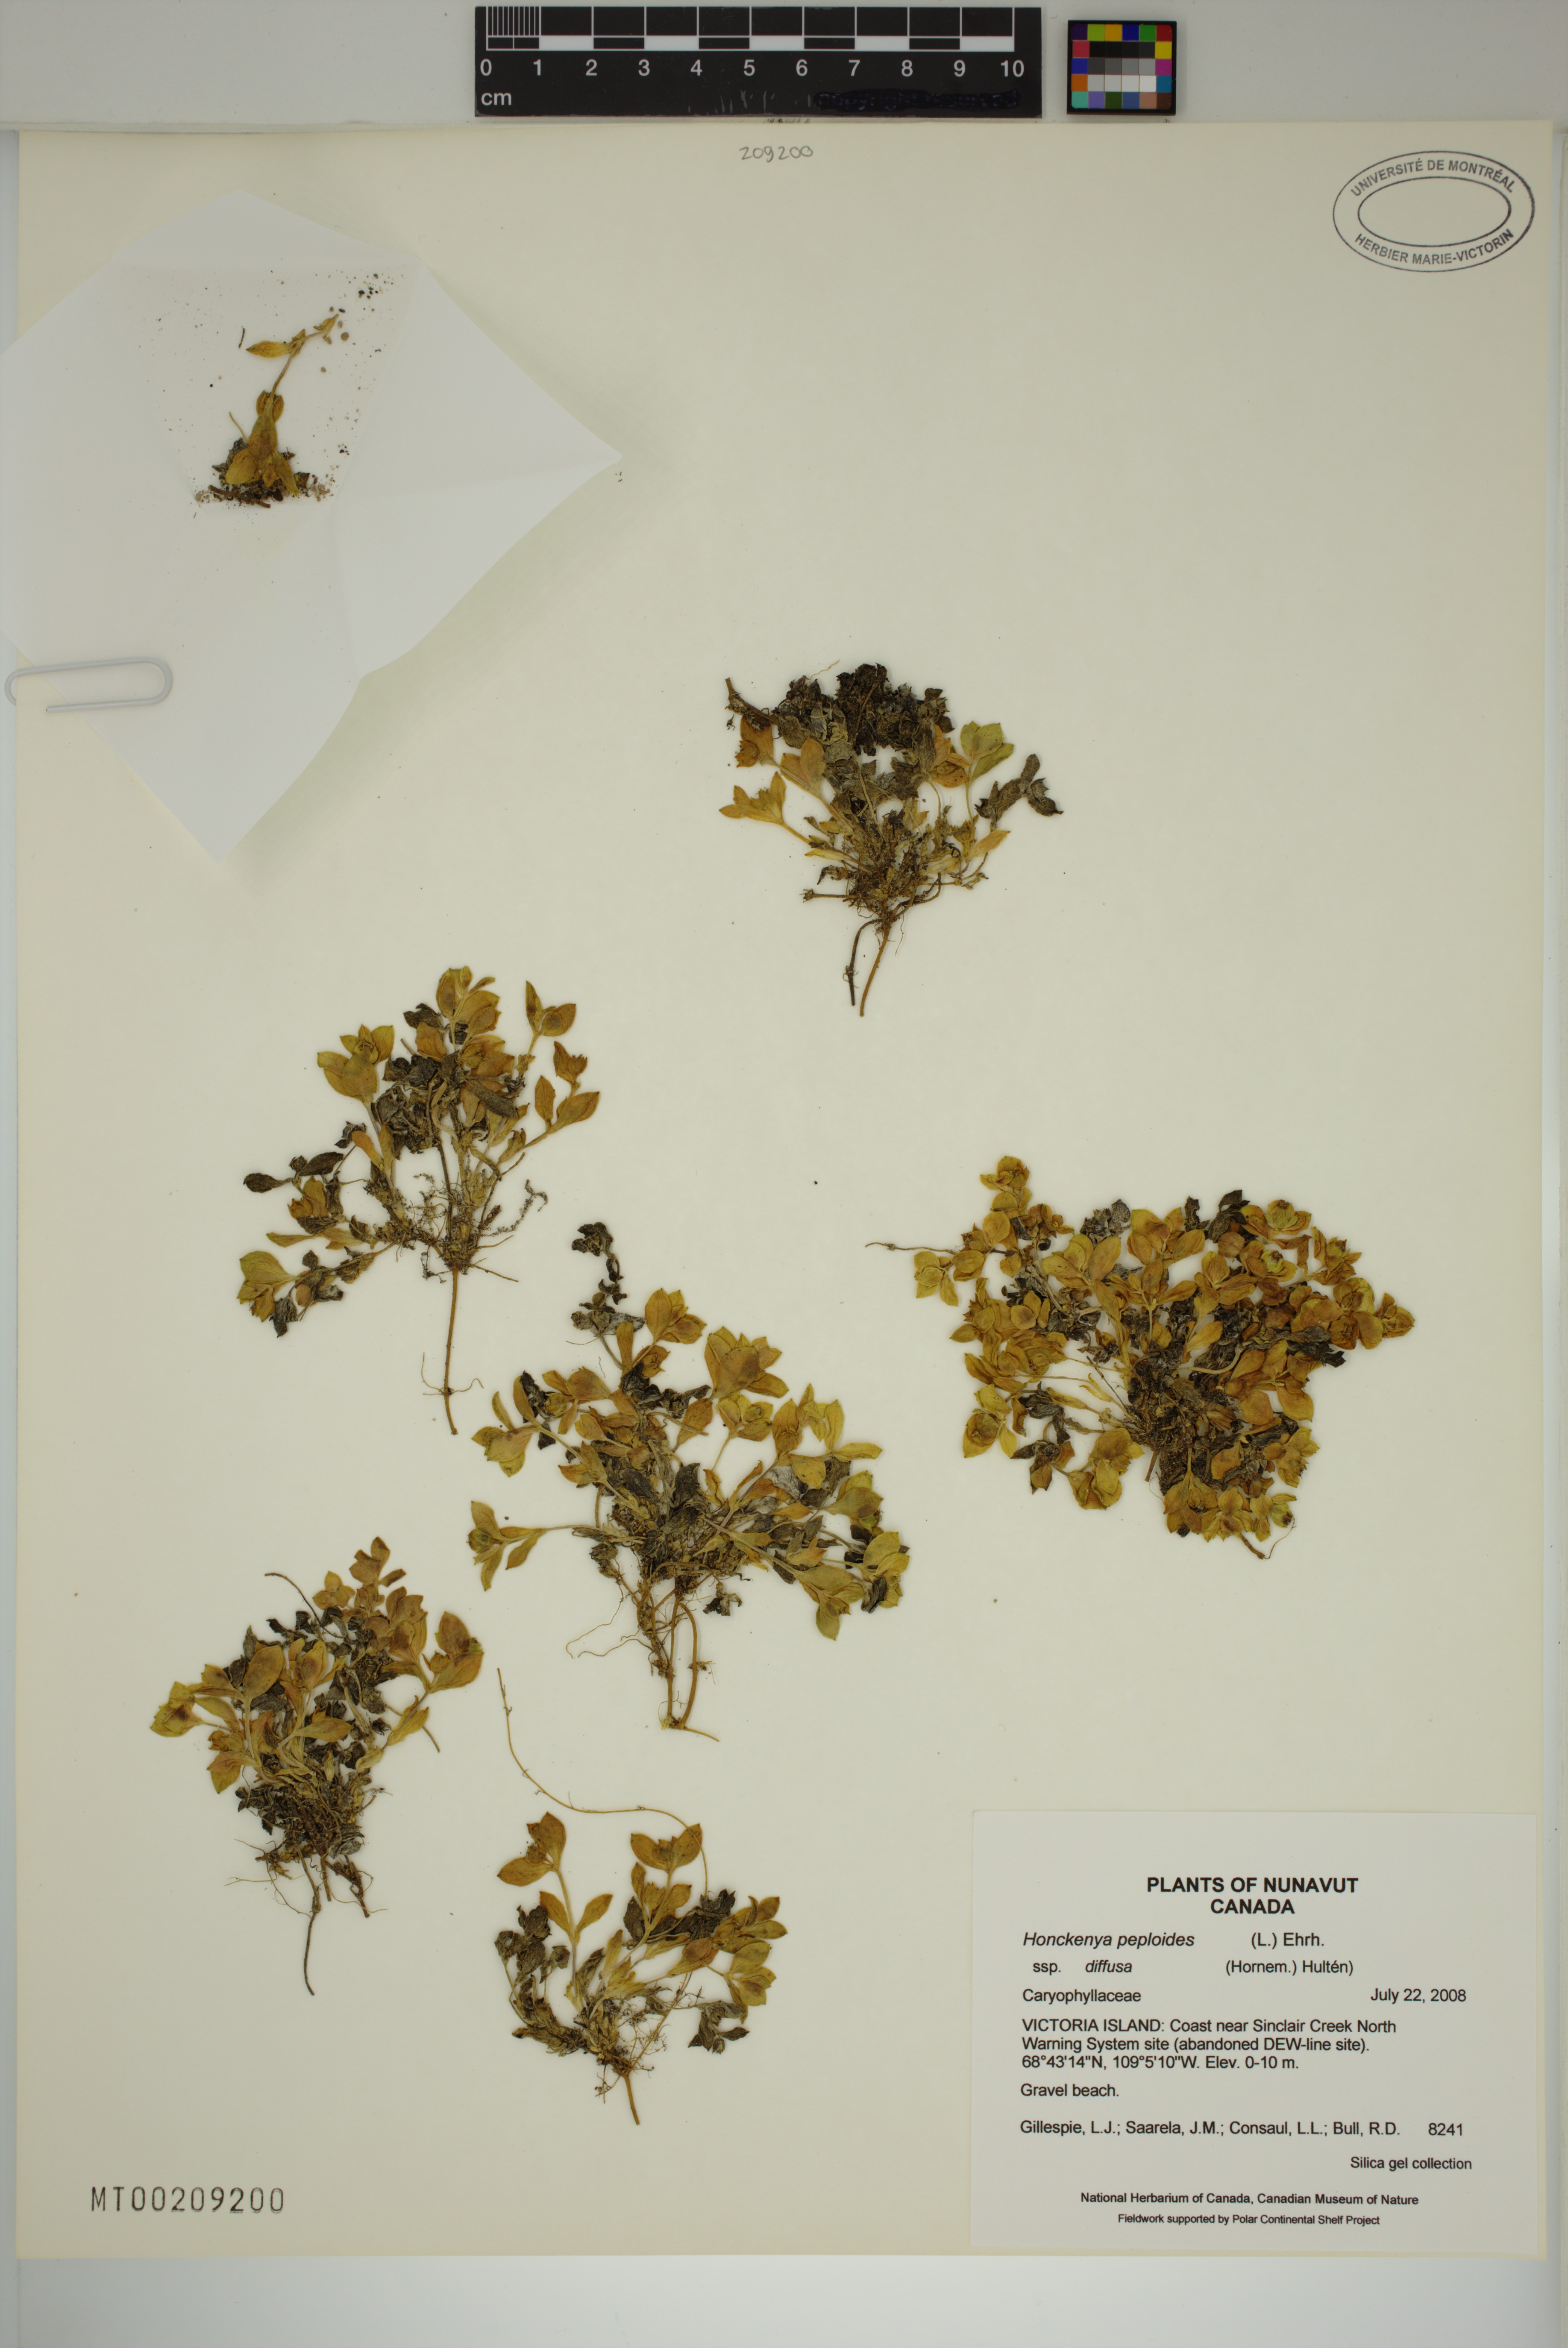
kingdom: Plantae
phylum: Tracheophyta
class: Magnoliopsida
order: Caryophyllales
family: Caryophyllaceae
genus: Honckenya
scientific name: Honckenya peploides
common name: Sea sandwort
